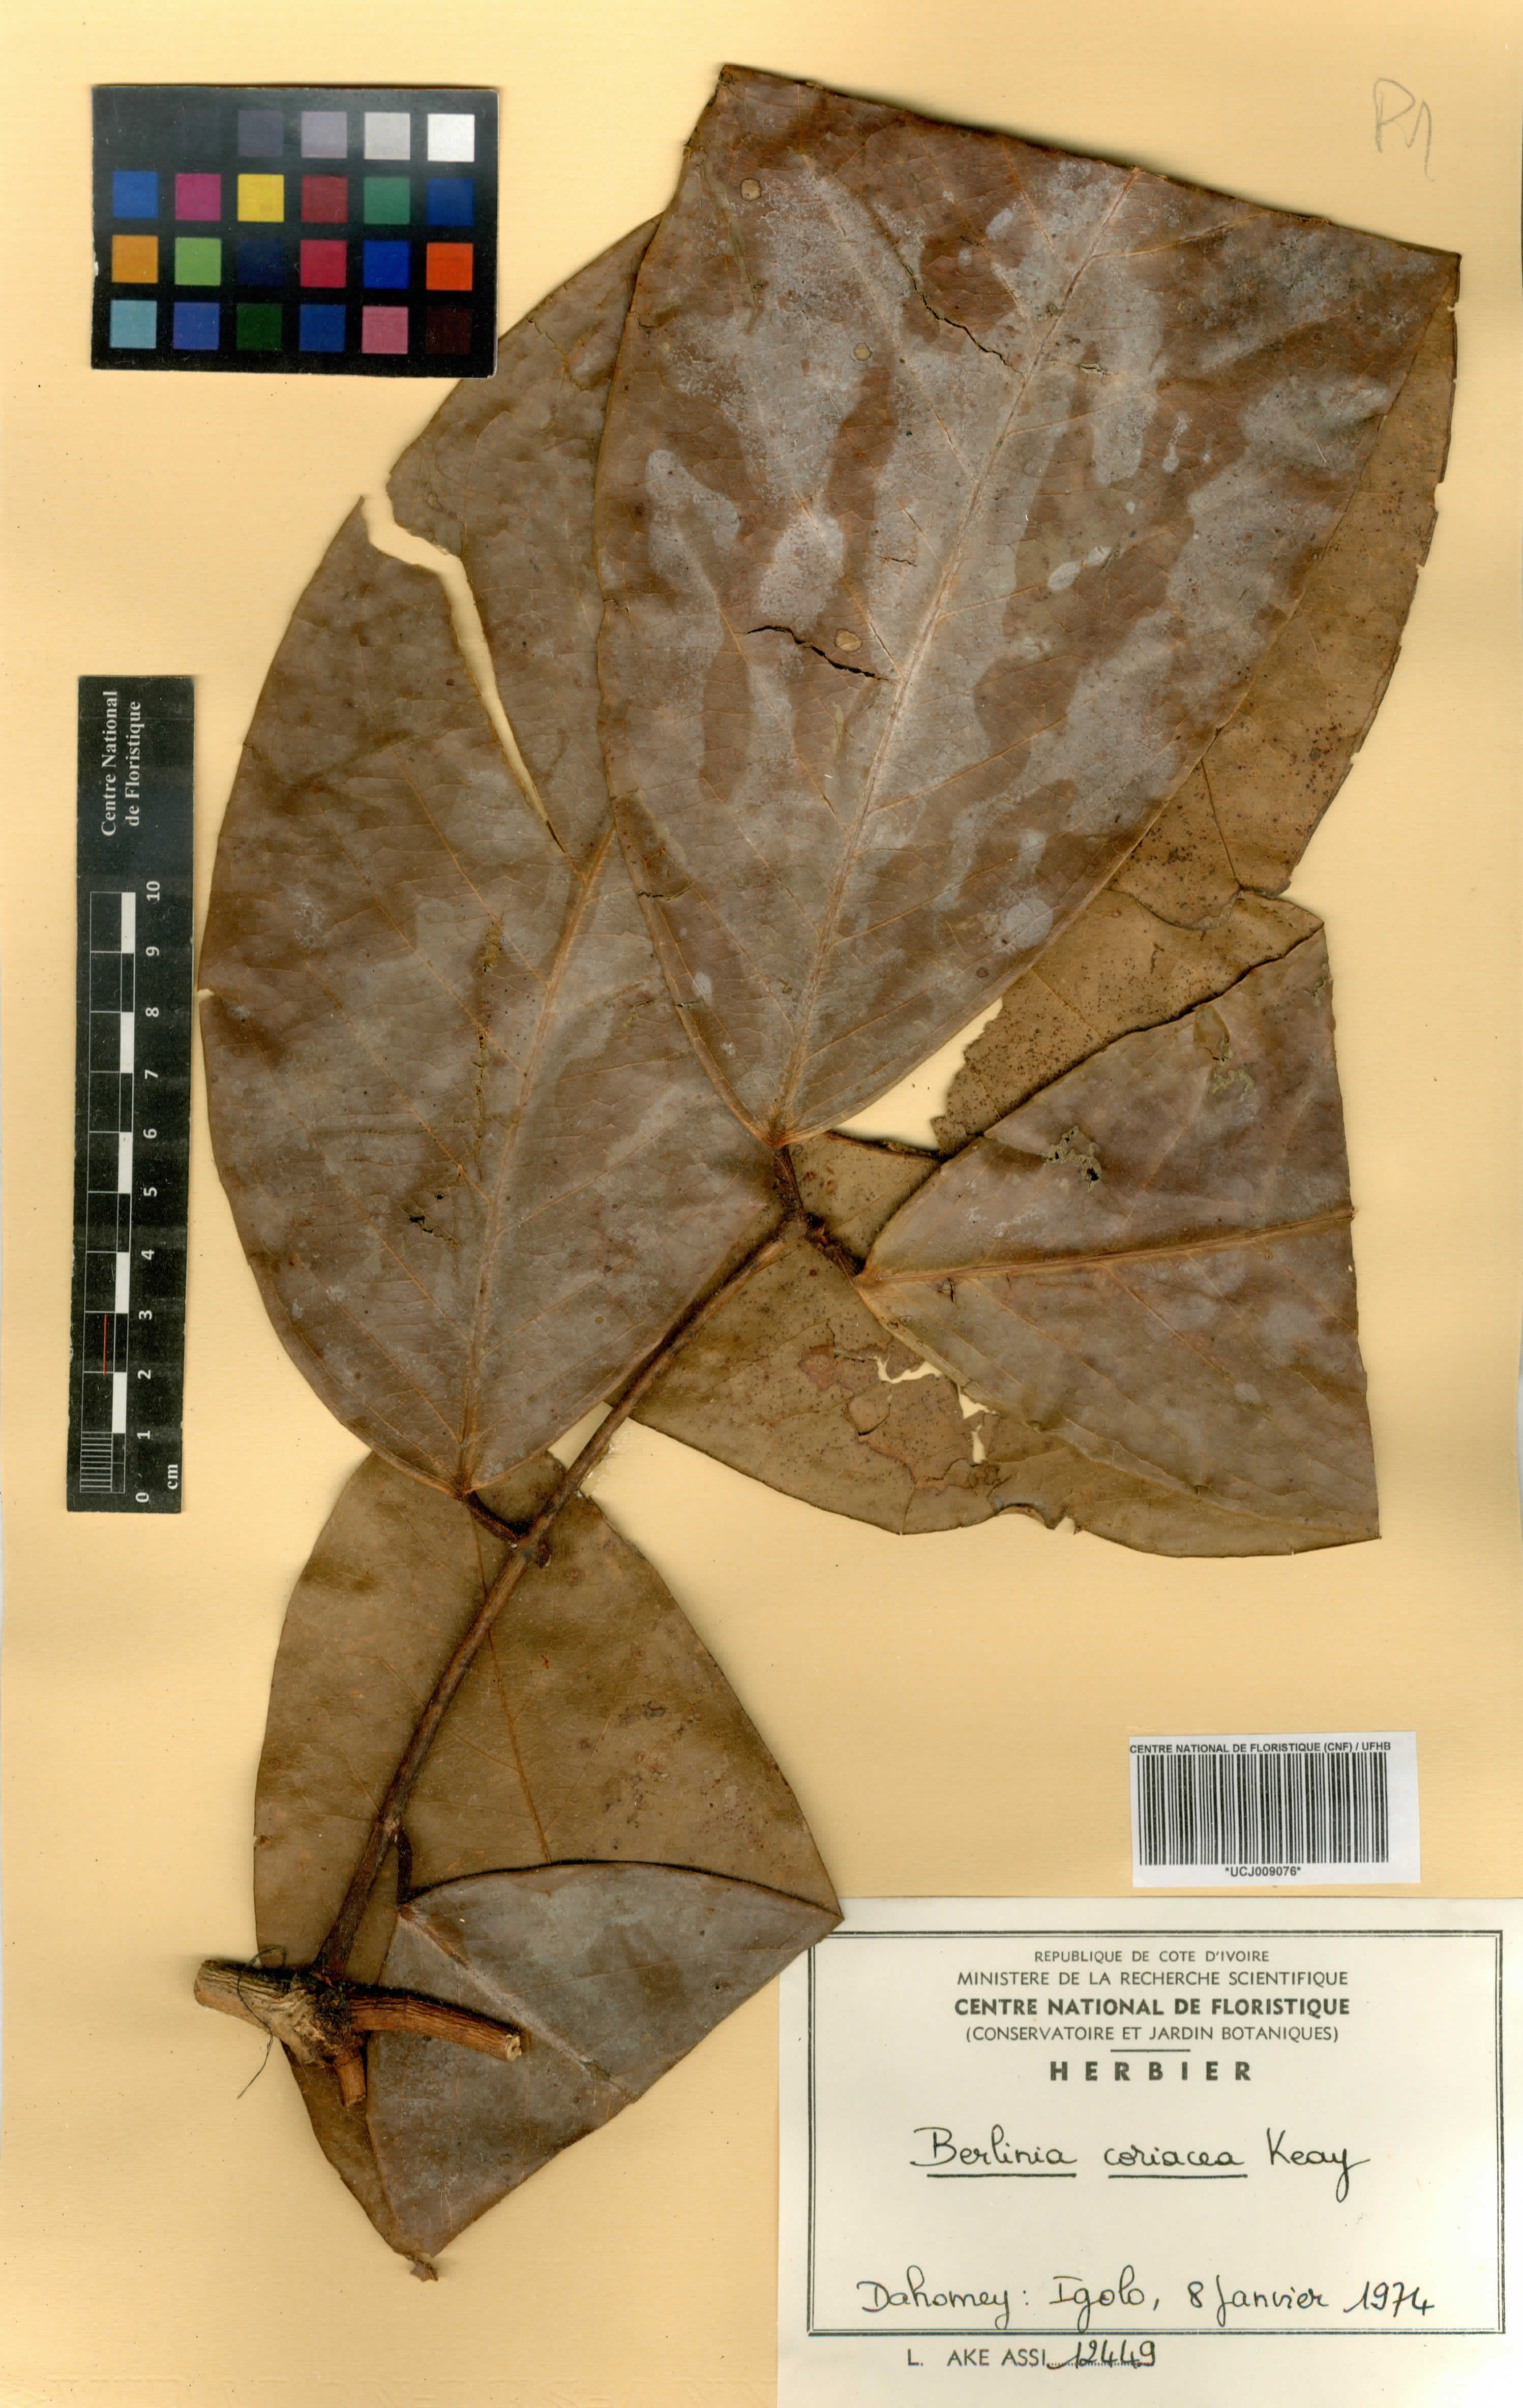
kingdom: Plantae
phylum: Tracheophyta
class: Magnoliopsida
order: Fabales
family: Fabaceae
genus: Berlinia
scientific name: Berlinia coriacea
